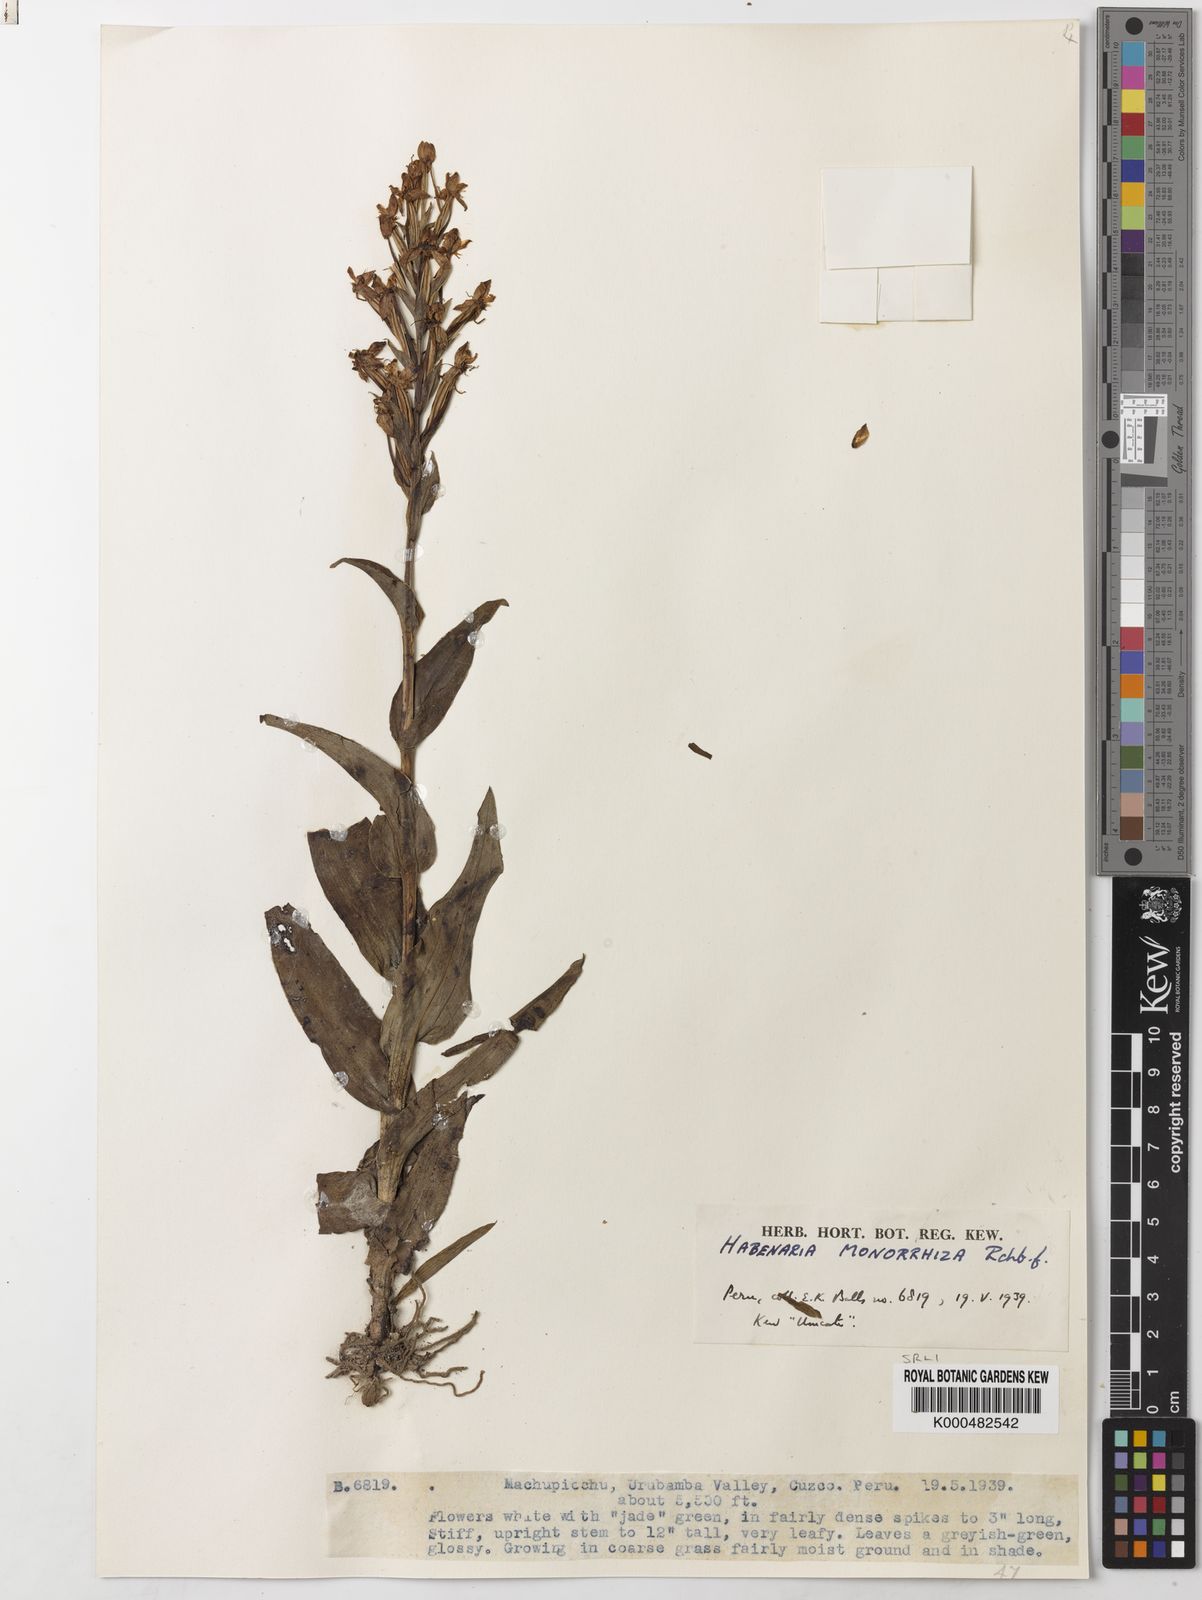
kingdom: Plantae
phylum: Tracheophyta
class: Liliopsida
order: Asparagales
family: Orchidaceae
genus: Habenaria
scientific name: Habenaria monorrhiza
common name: Tropical bog orchid
